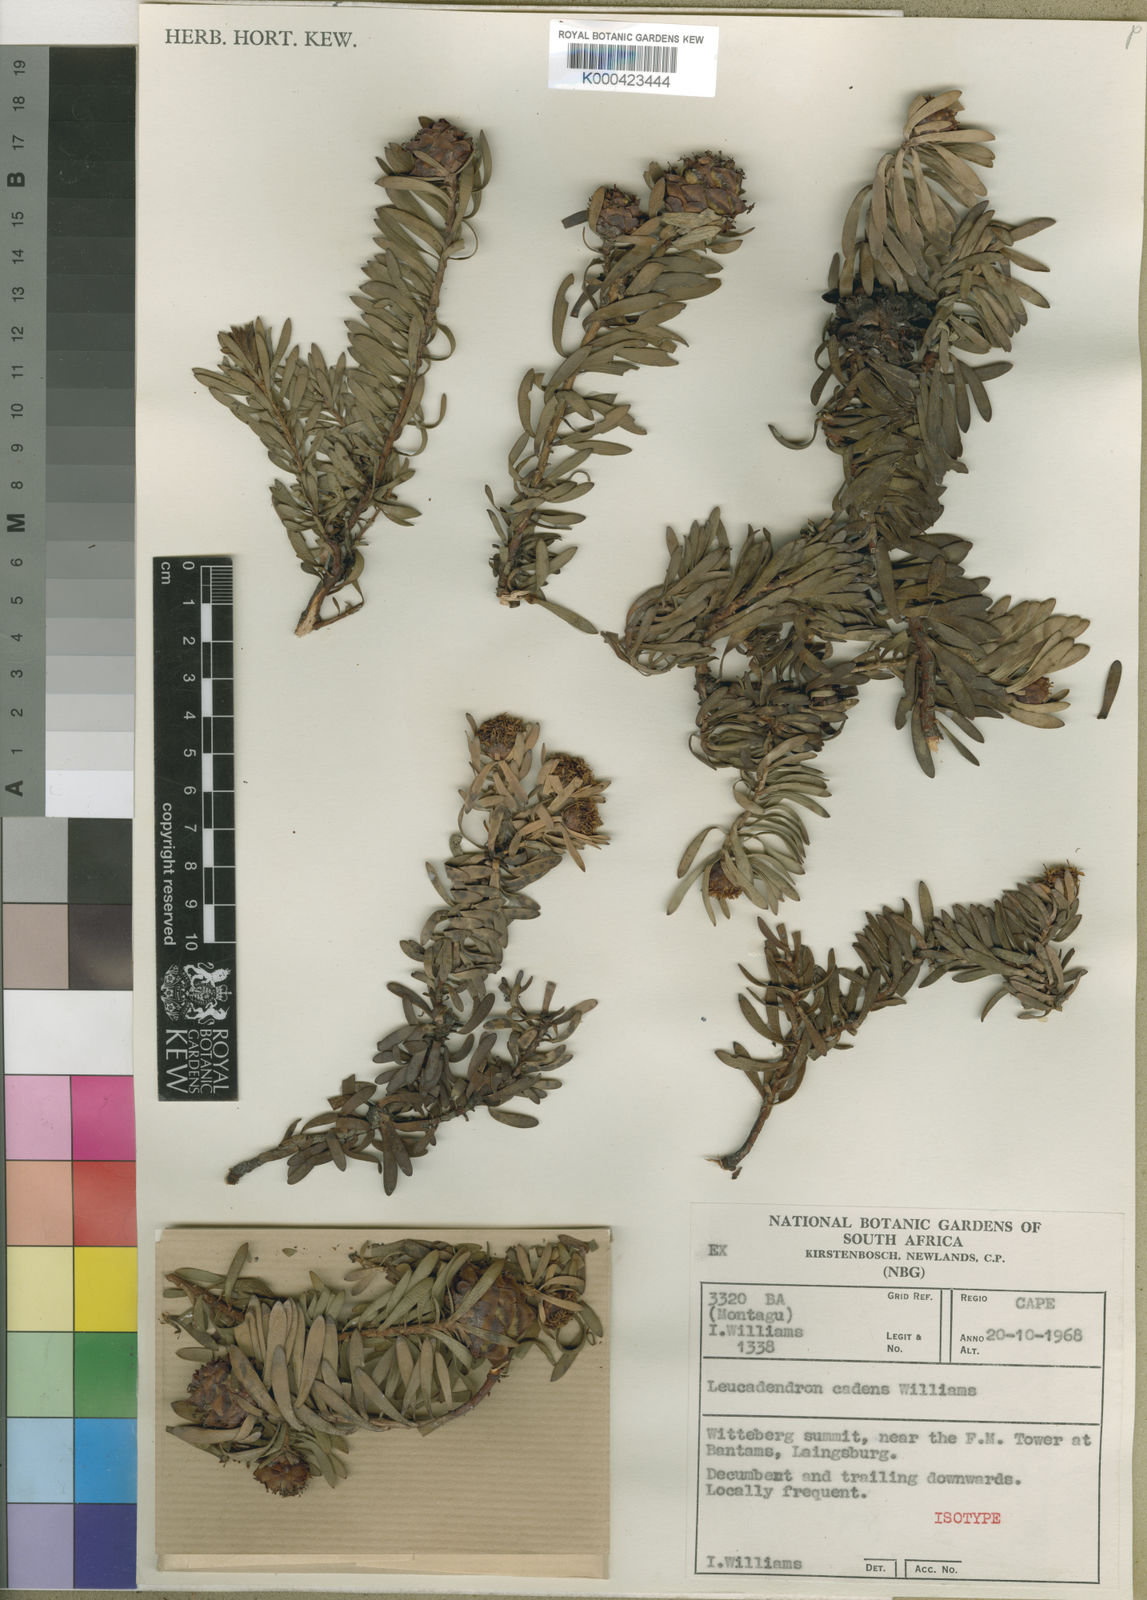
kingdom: Plantae
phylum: Tracheophyta
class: Magnoliopsida
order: Proteales
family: Proteaceae
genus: Leucadendron
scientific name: Leucadendron cadens
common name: Witteberg sunbush
